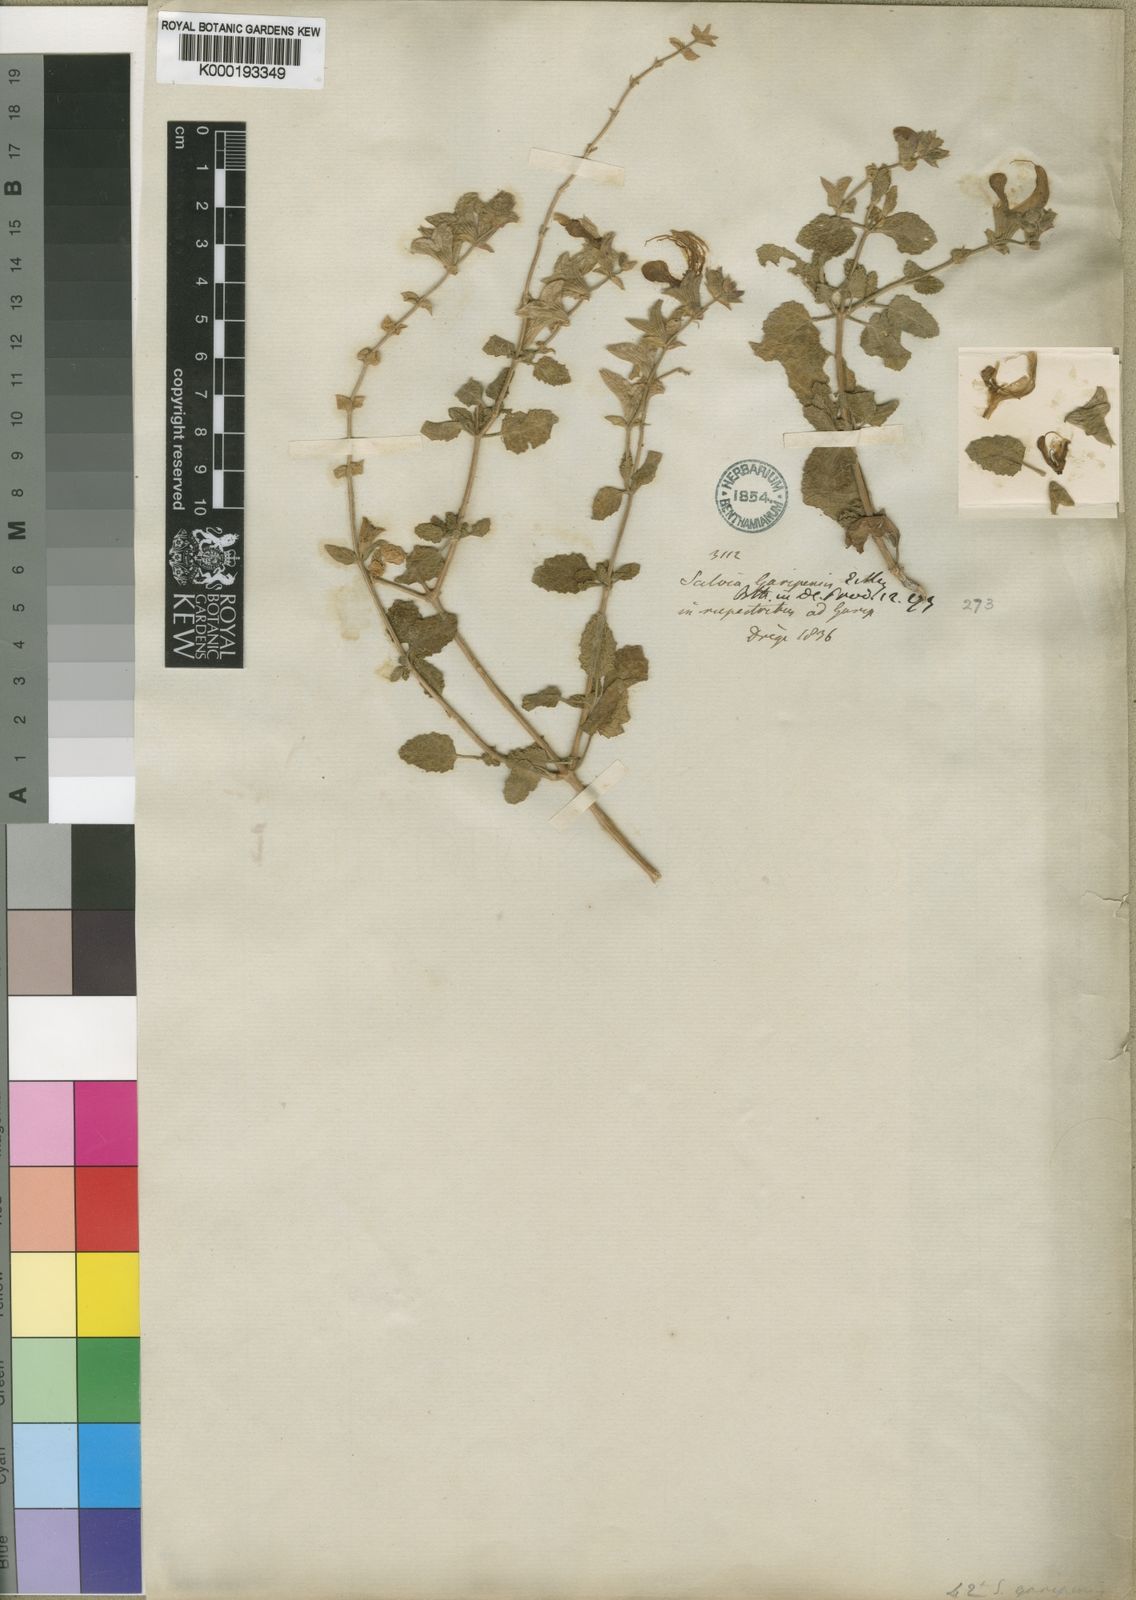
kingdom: Plantae
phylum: Tracheophyta
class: Magnoliopsida
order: Lamiales
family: Lamiaceae
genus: Salvia
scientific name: Salvia
